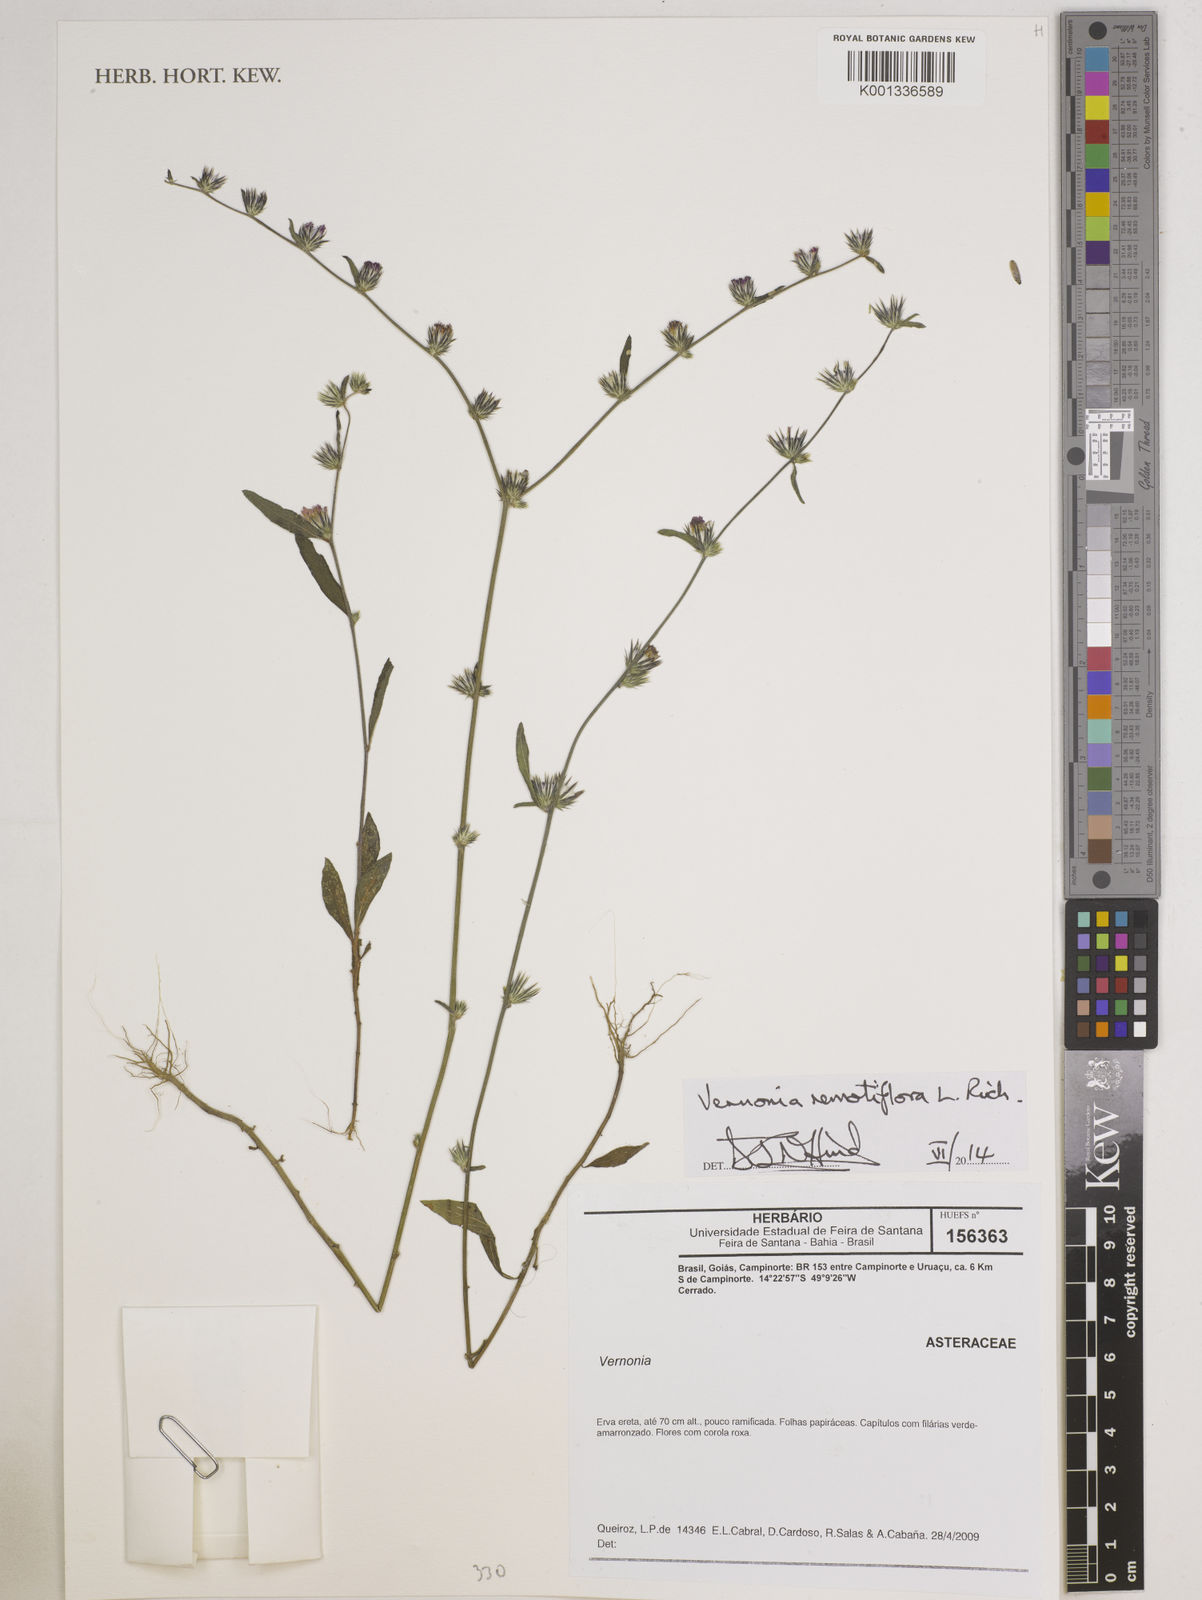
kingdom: Plantae
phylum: Tracheophyta
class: Magnoliopsida
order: Asterales
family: Asteraceae
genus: Lepidaploa
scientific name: Lepidaploa remotiflora
